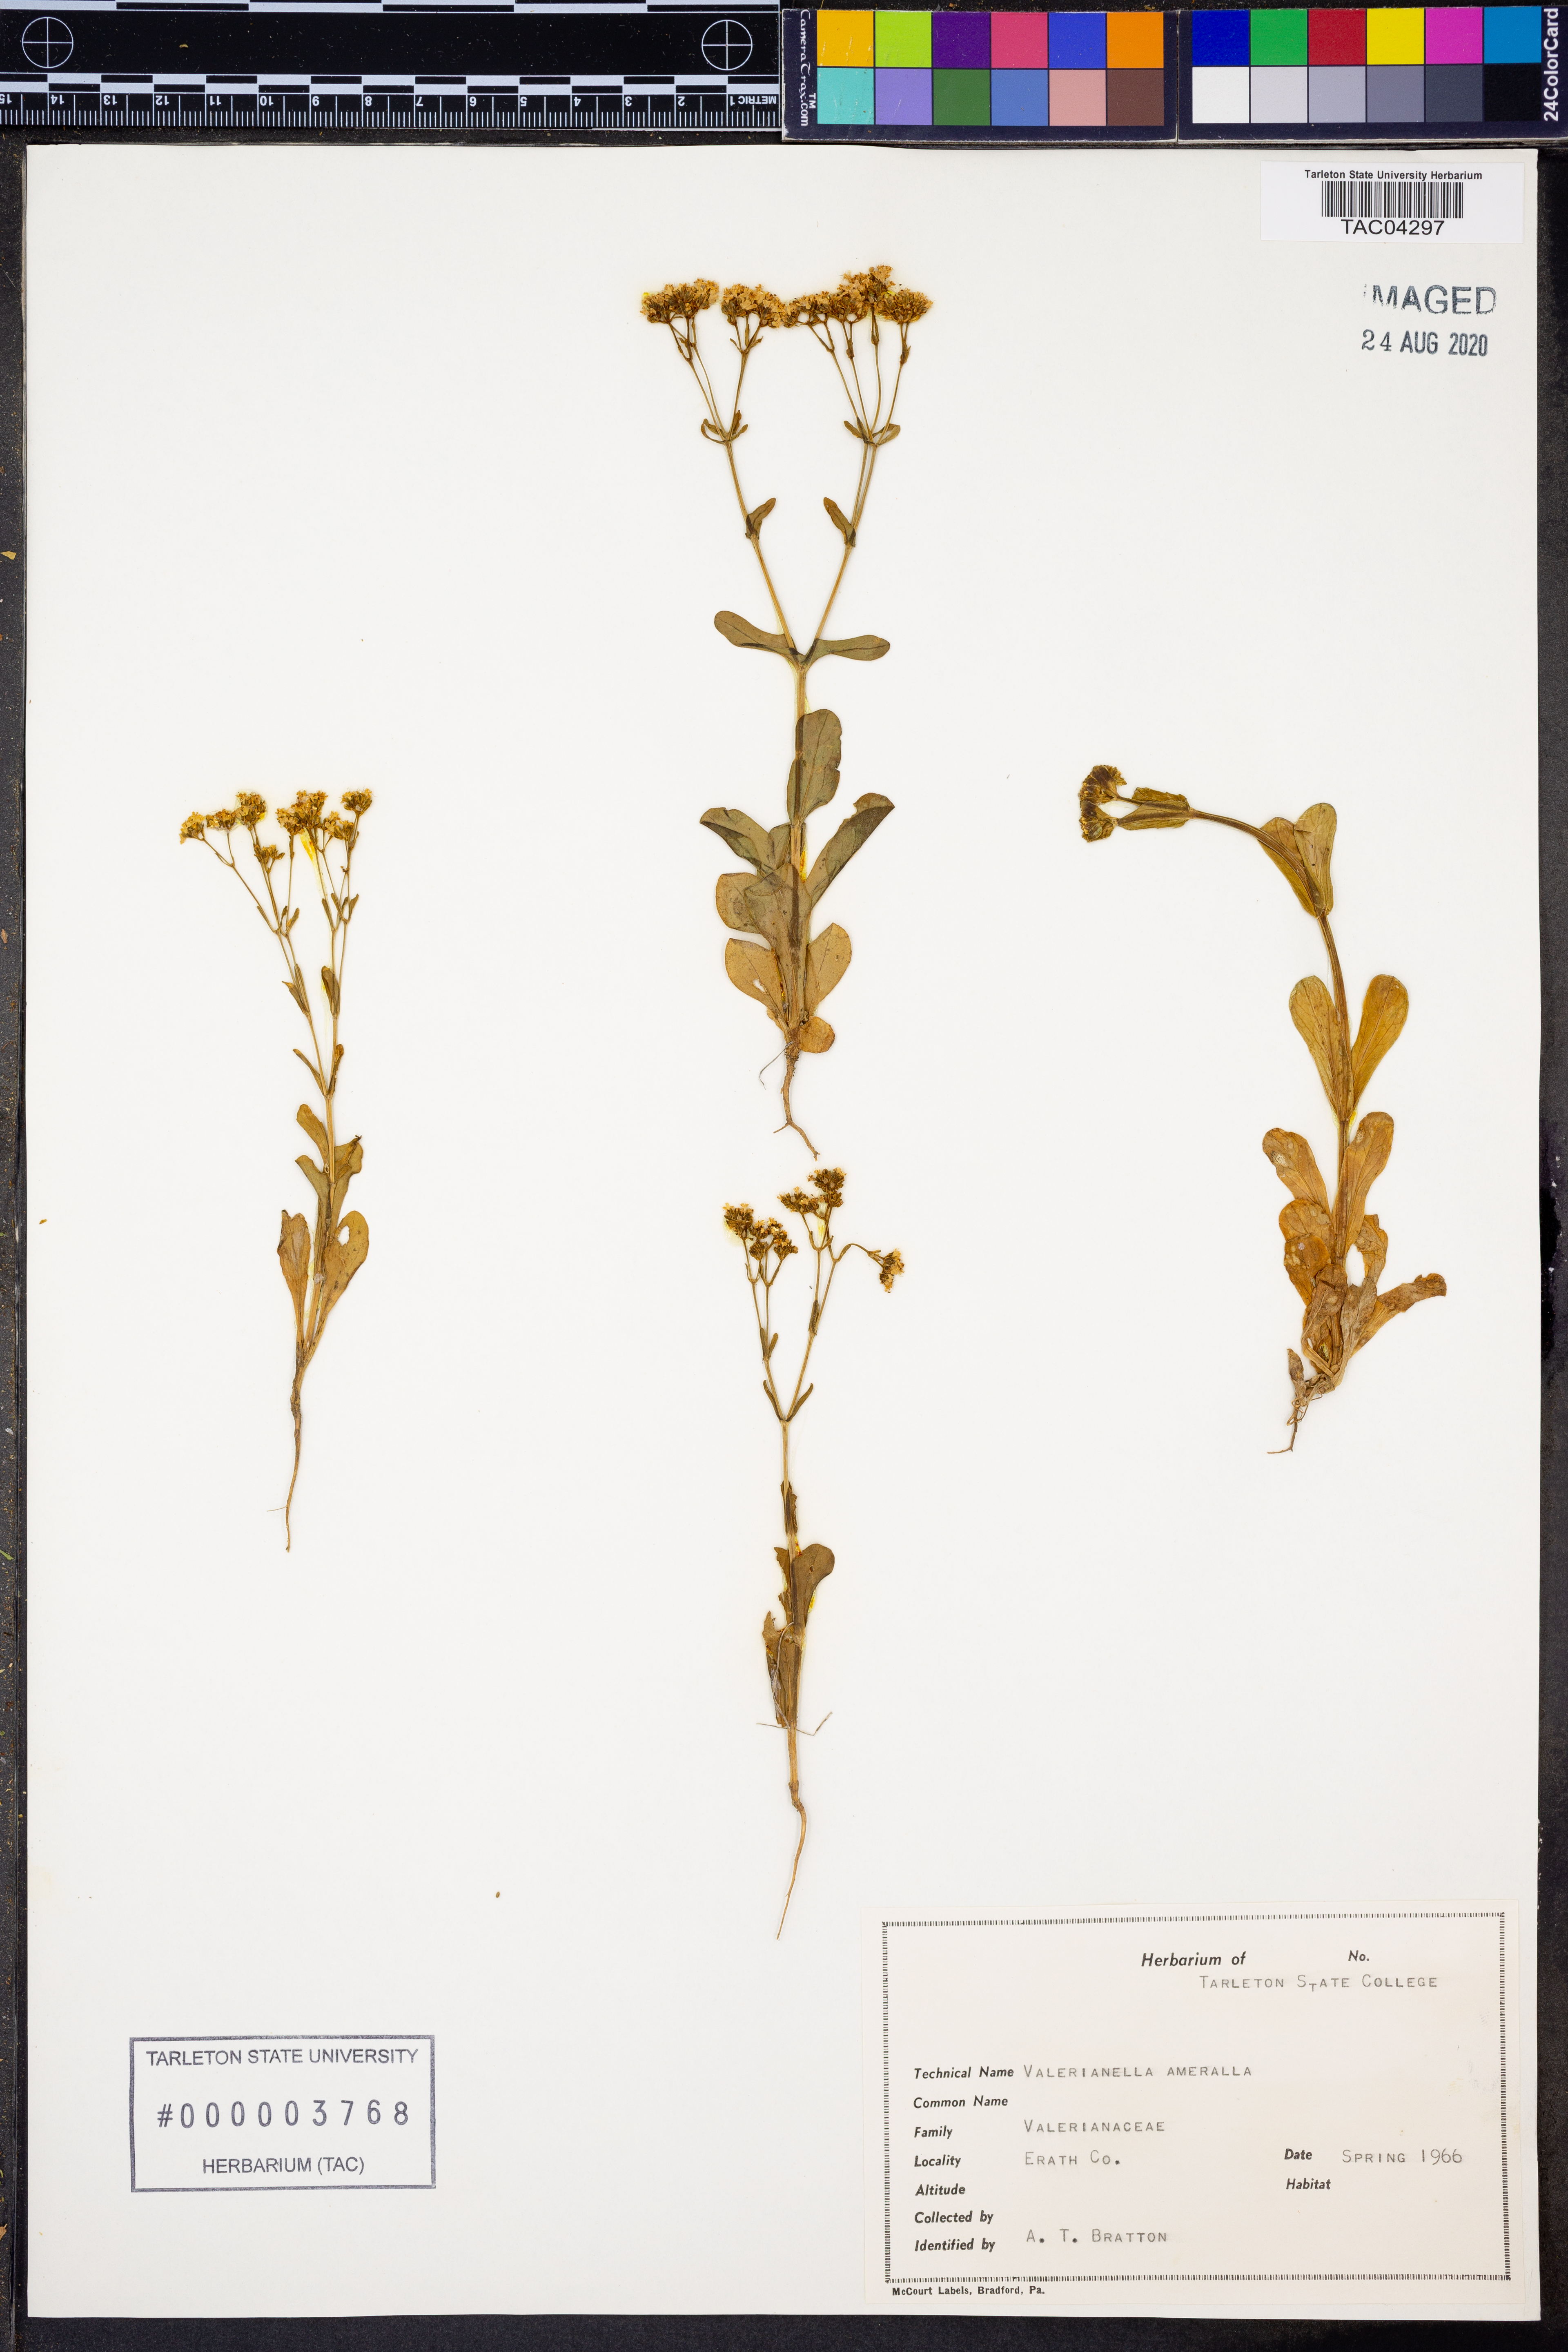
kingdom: Plantae
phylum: Tracheophyta
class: Magnoliopsida
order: Dipsacales
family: Caprifoliaceae
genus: Valerianella
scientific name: Valerianella amarella
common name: Hariy cornsalad
